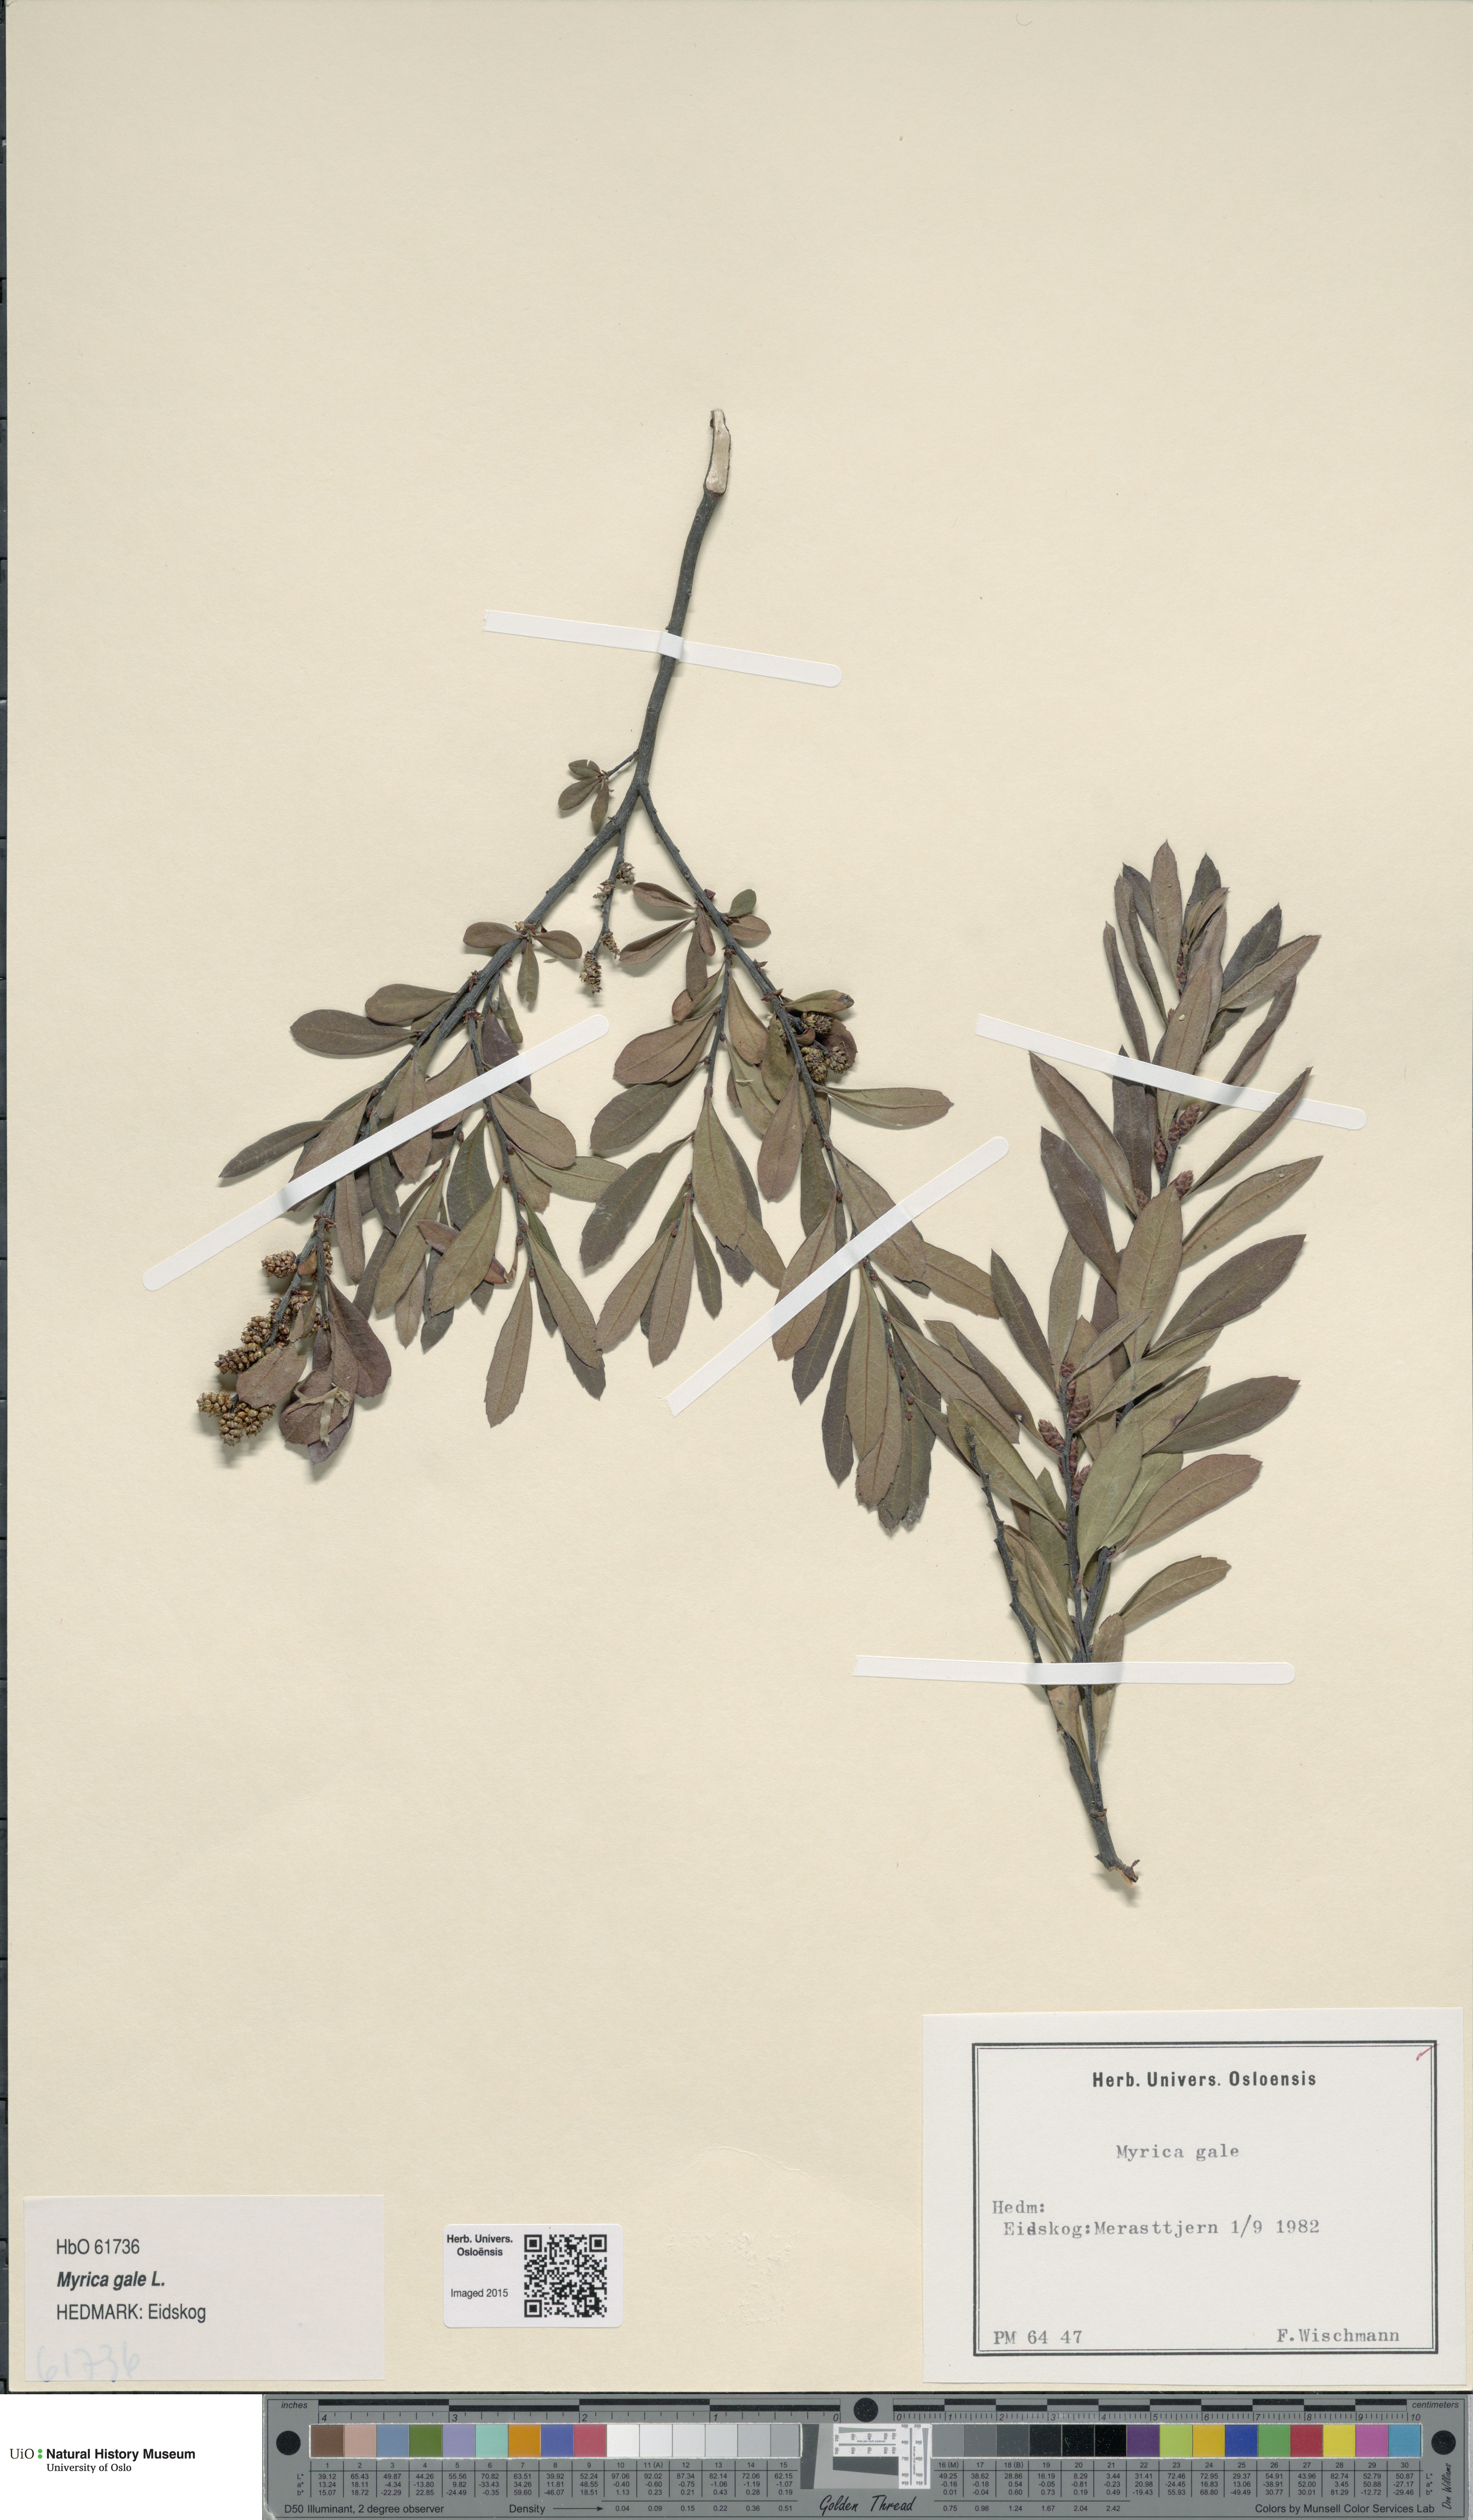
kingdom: Plantae
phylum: Tracheophyta
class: Magnoliopsida
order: Fagales
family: Myricaceae
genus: Myrica
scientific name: Myrica gale
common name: Sweet gale
